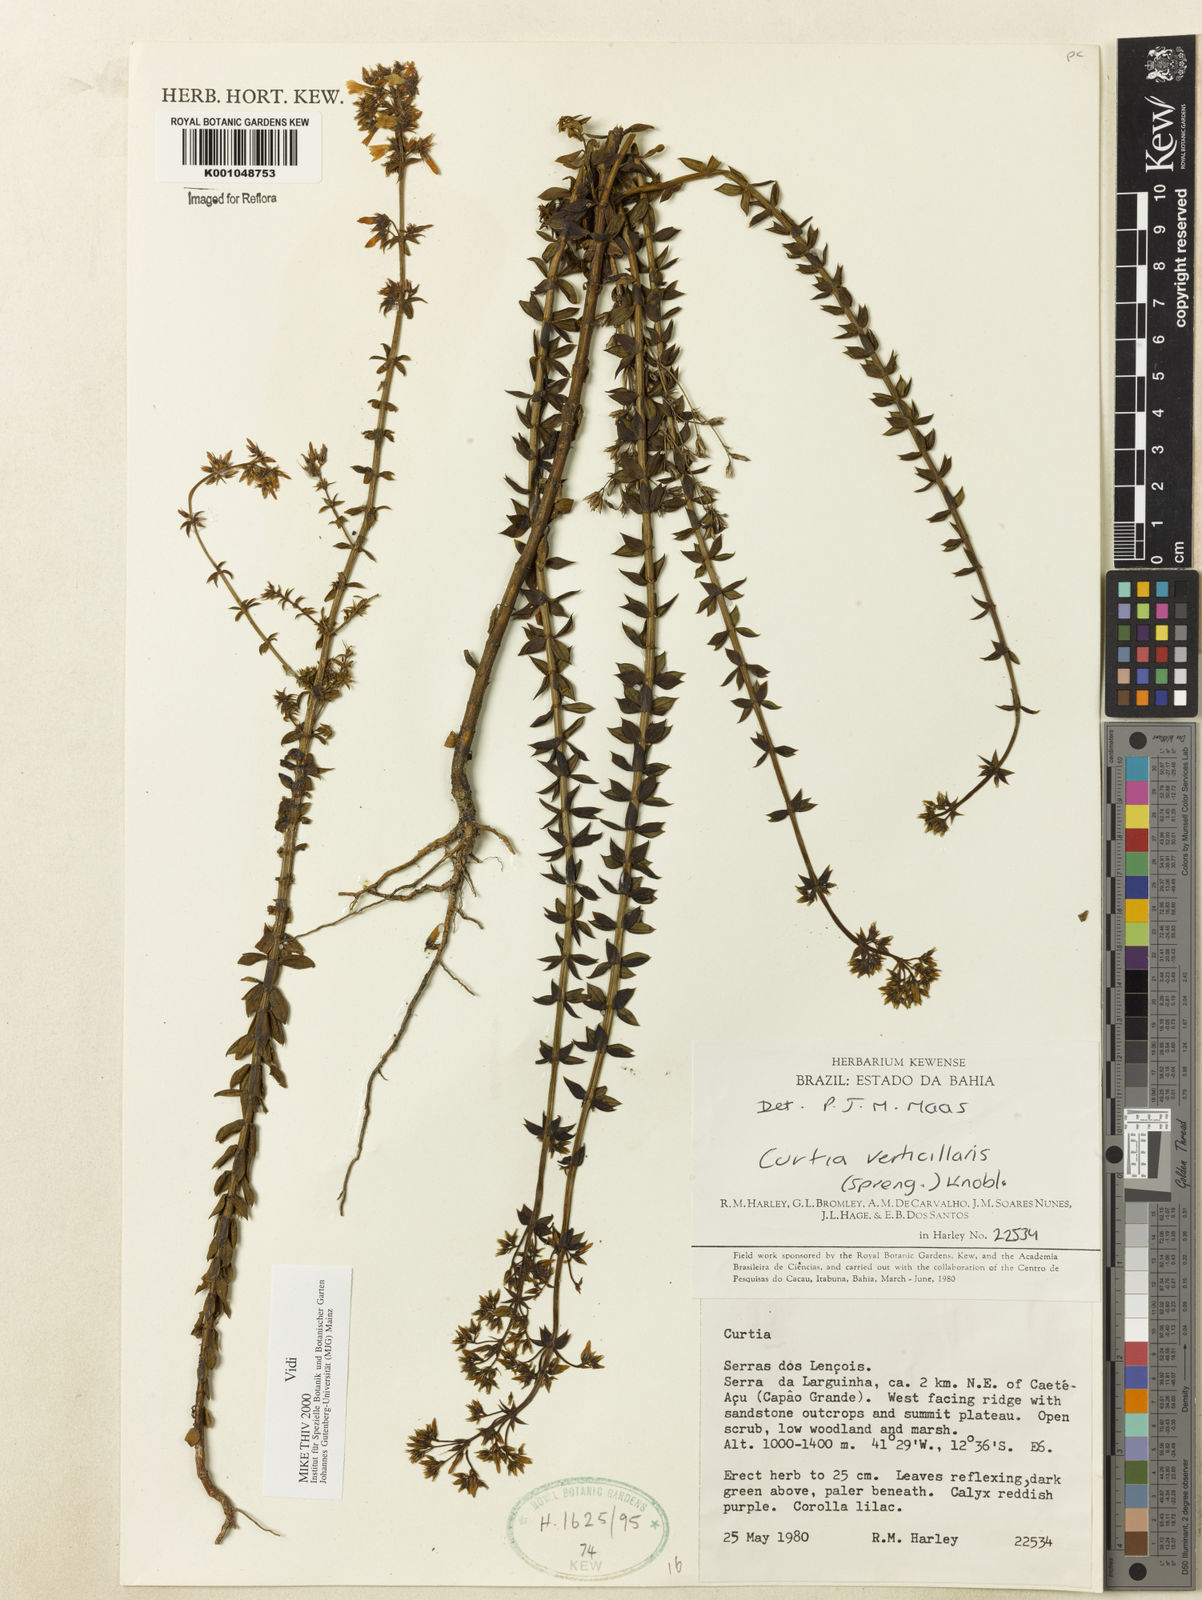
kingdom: Plantae
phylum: Tracheophyta
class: Magnoliopsida
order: Gentianales
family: Gentianaceae
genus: Curtia
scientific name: Curtia verticillaris
